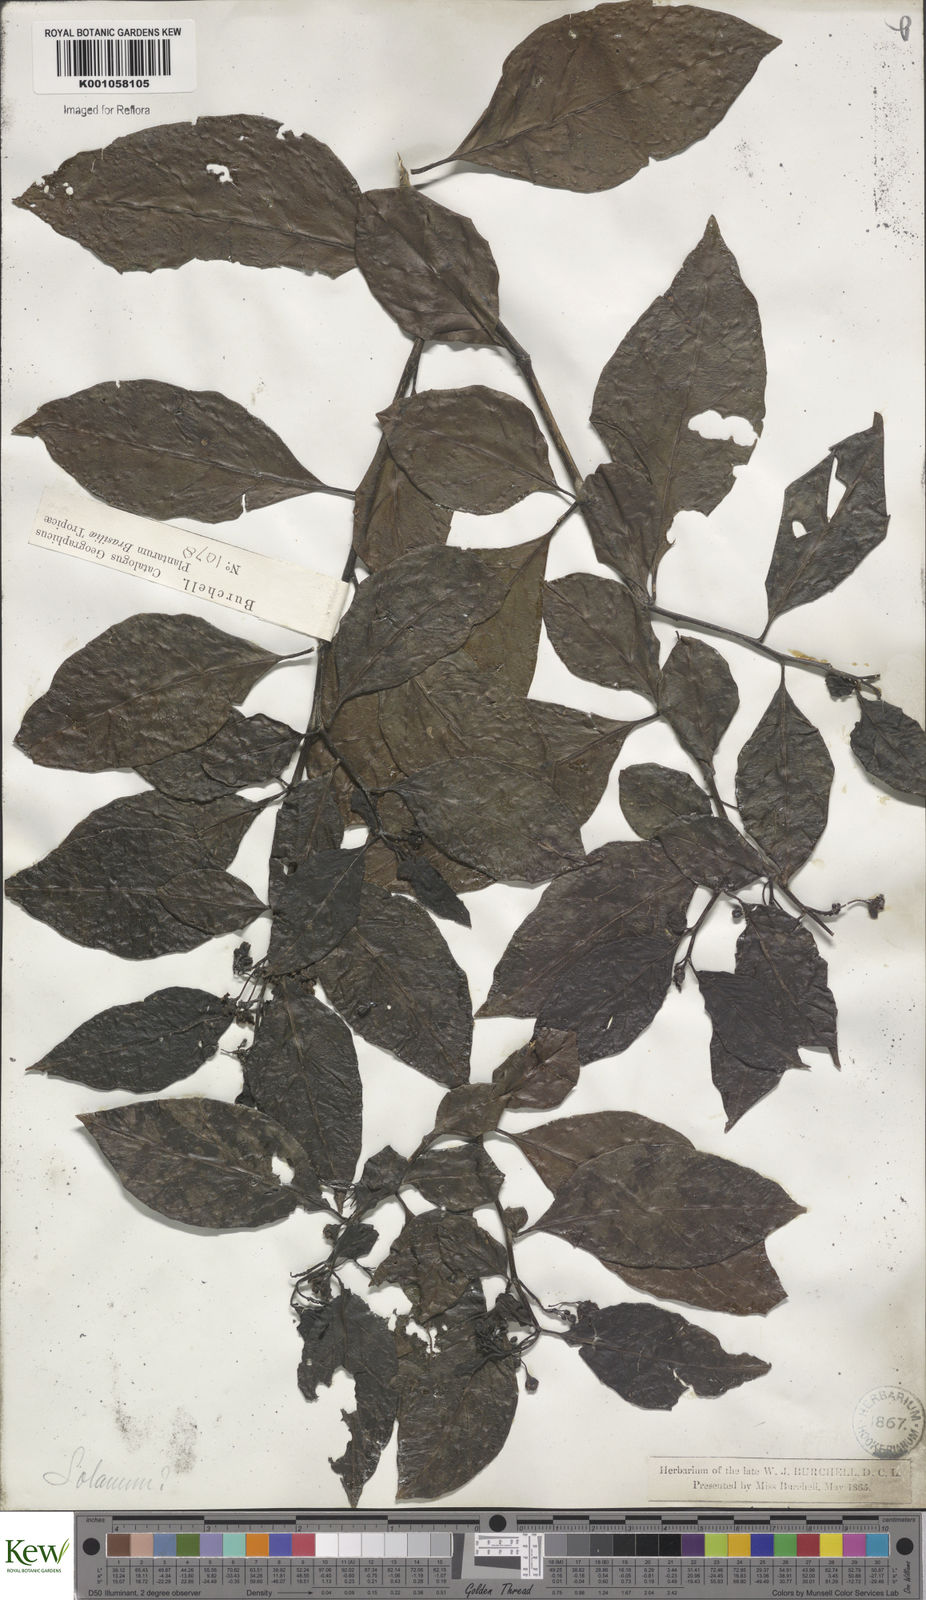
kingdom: Plantae
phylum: Tracheophyta
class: Magnoliopsida
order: Solanales
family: Solanaceae
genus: Solanum
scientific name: Solanum caavurana
